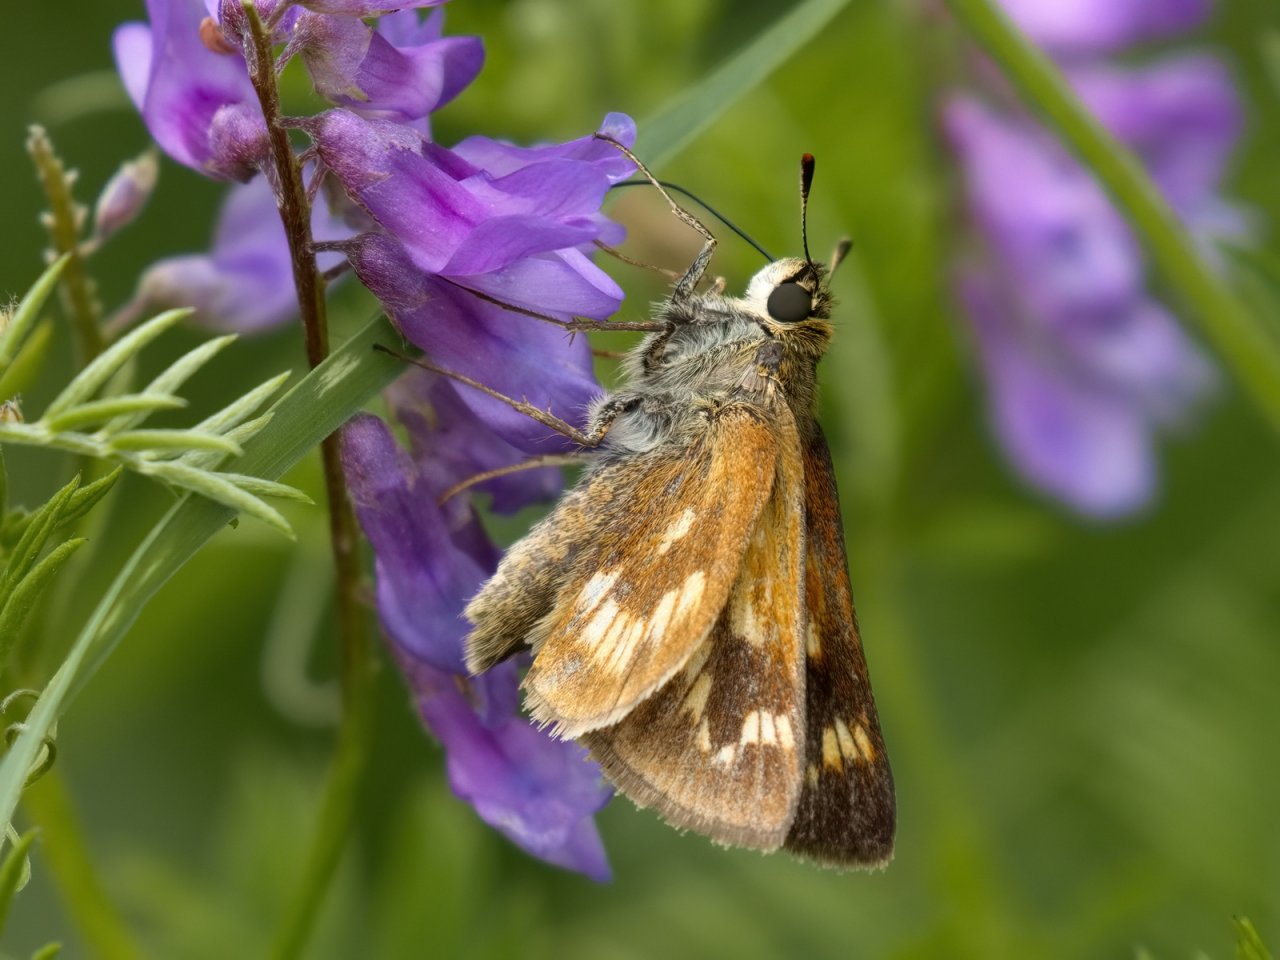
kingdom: Animalia
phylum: Arthropoda
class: Insecta
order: Lepidoptera
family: Hesperiidae
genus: Polites
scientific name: Polites
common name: Long Dash Skipper
